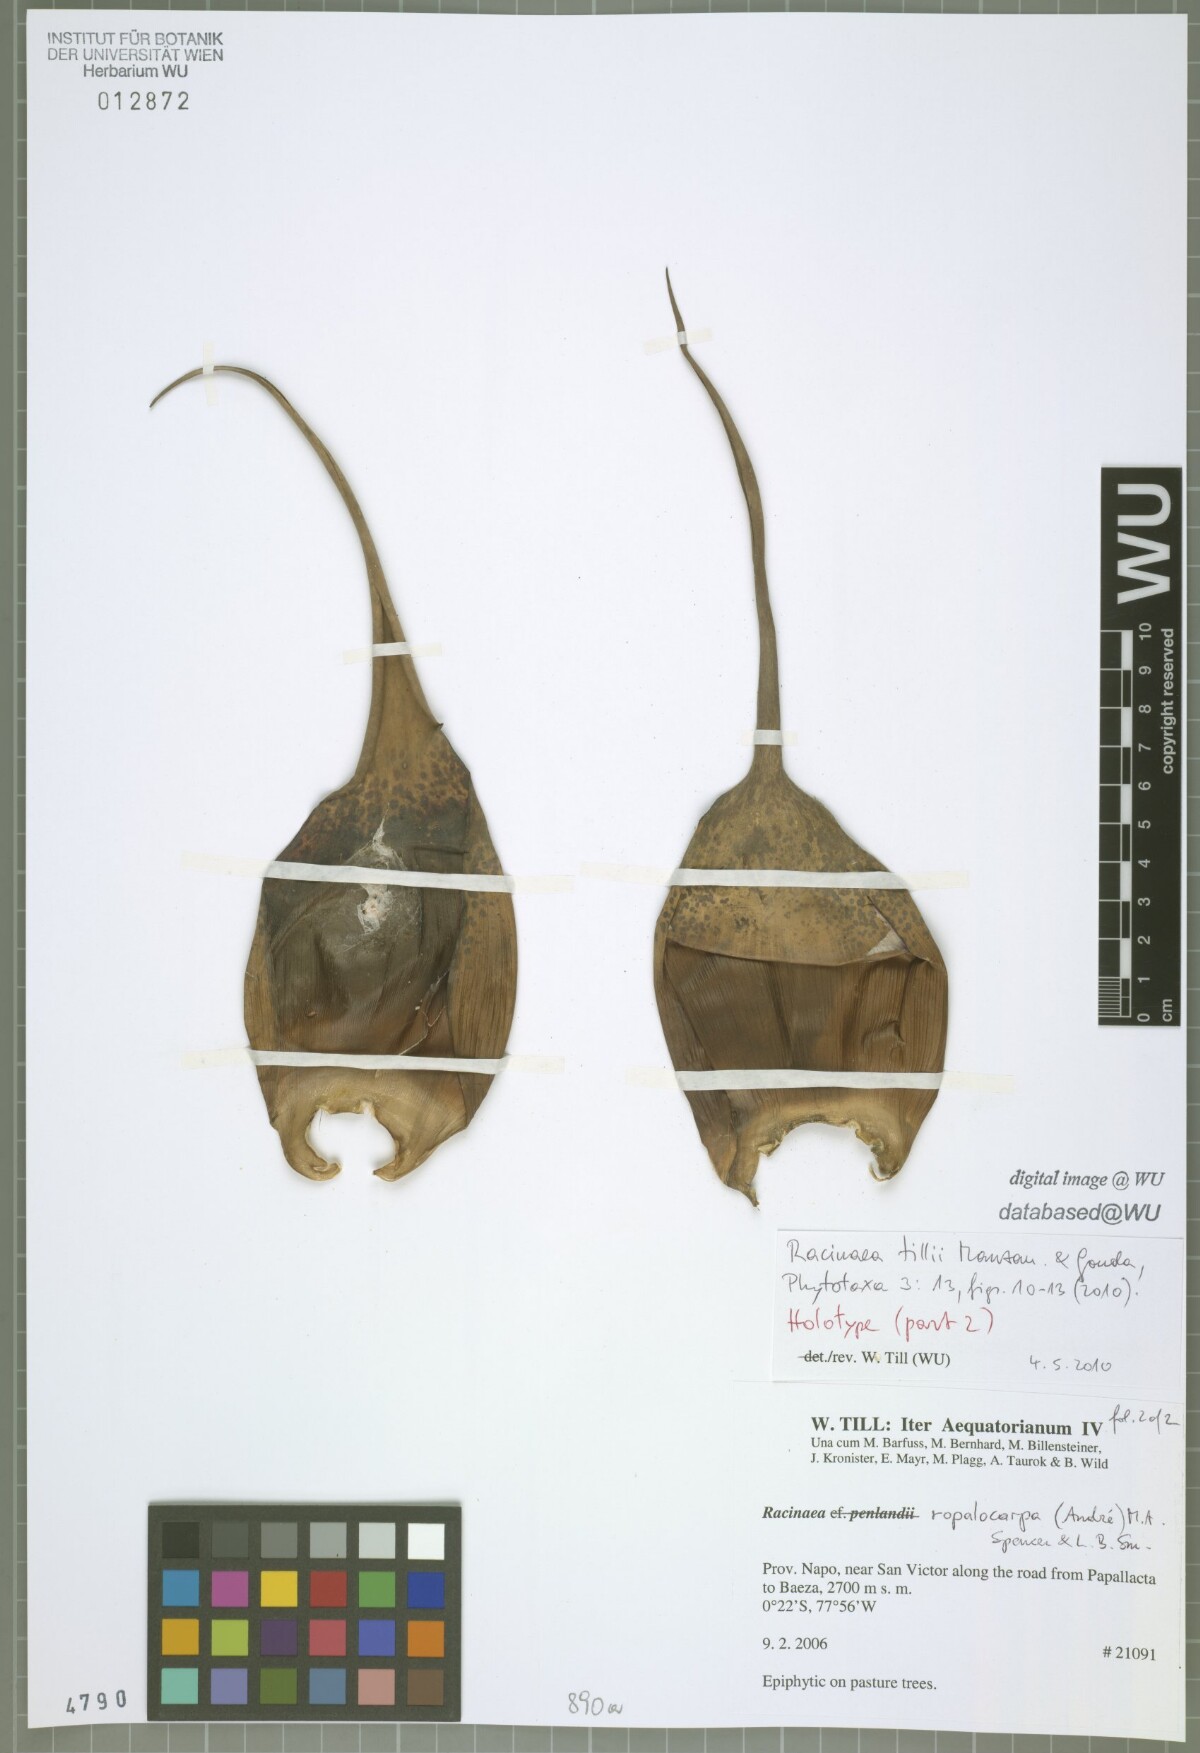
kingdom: Plantae
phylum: Tracheophyta
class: Liliopsida
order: Poales
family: Bromeliaceae
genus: Racinaea
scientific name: Racinaea tillii
